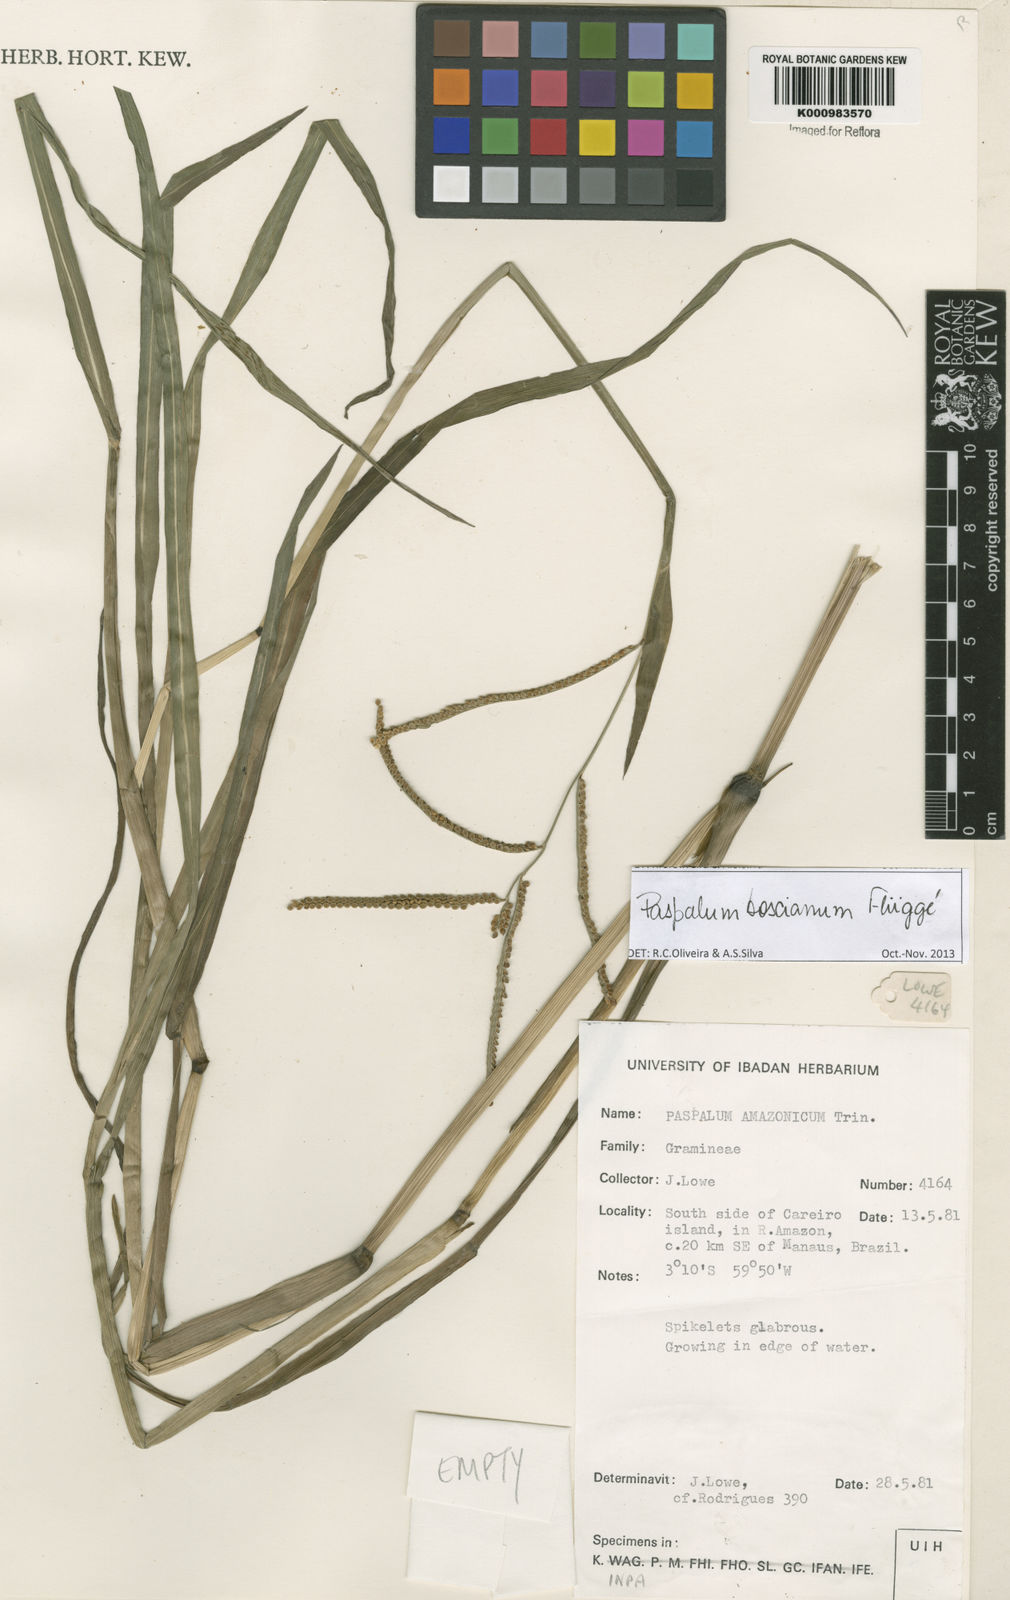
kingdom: Plantae
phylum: Tracheophyta
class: Liliopsida
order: Poales
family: Poaceae
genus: Paspalum
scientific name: Paspalum
